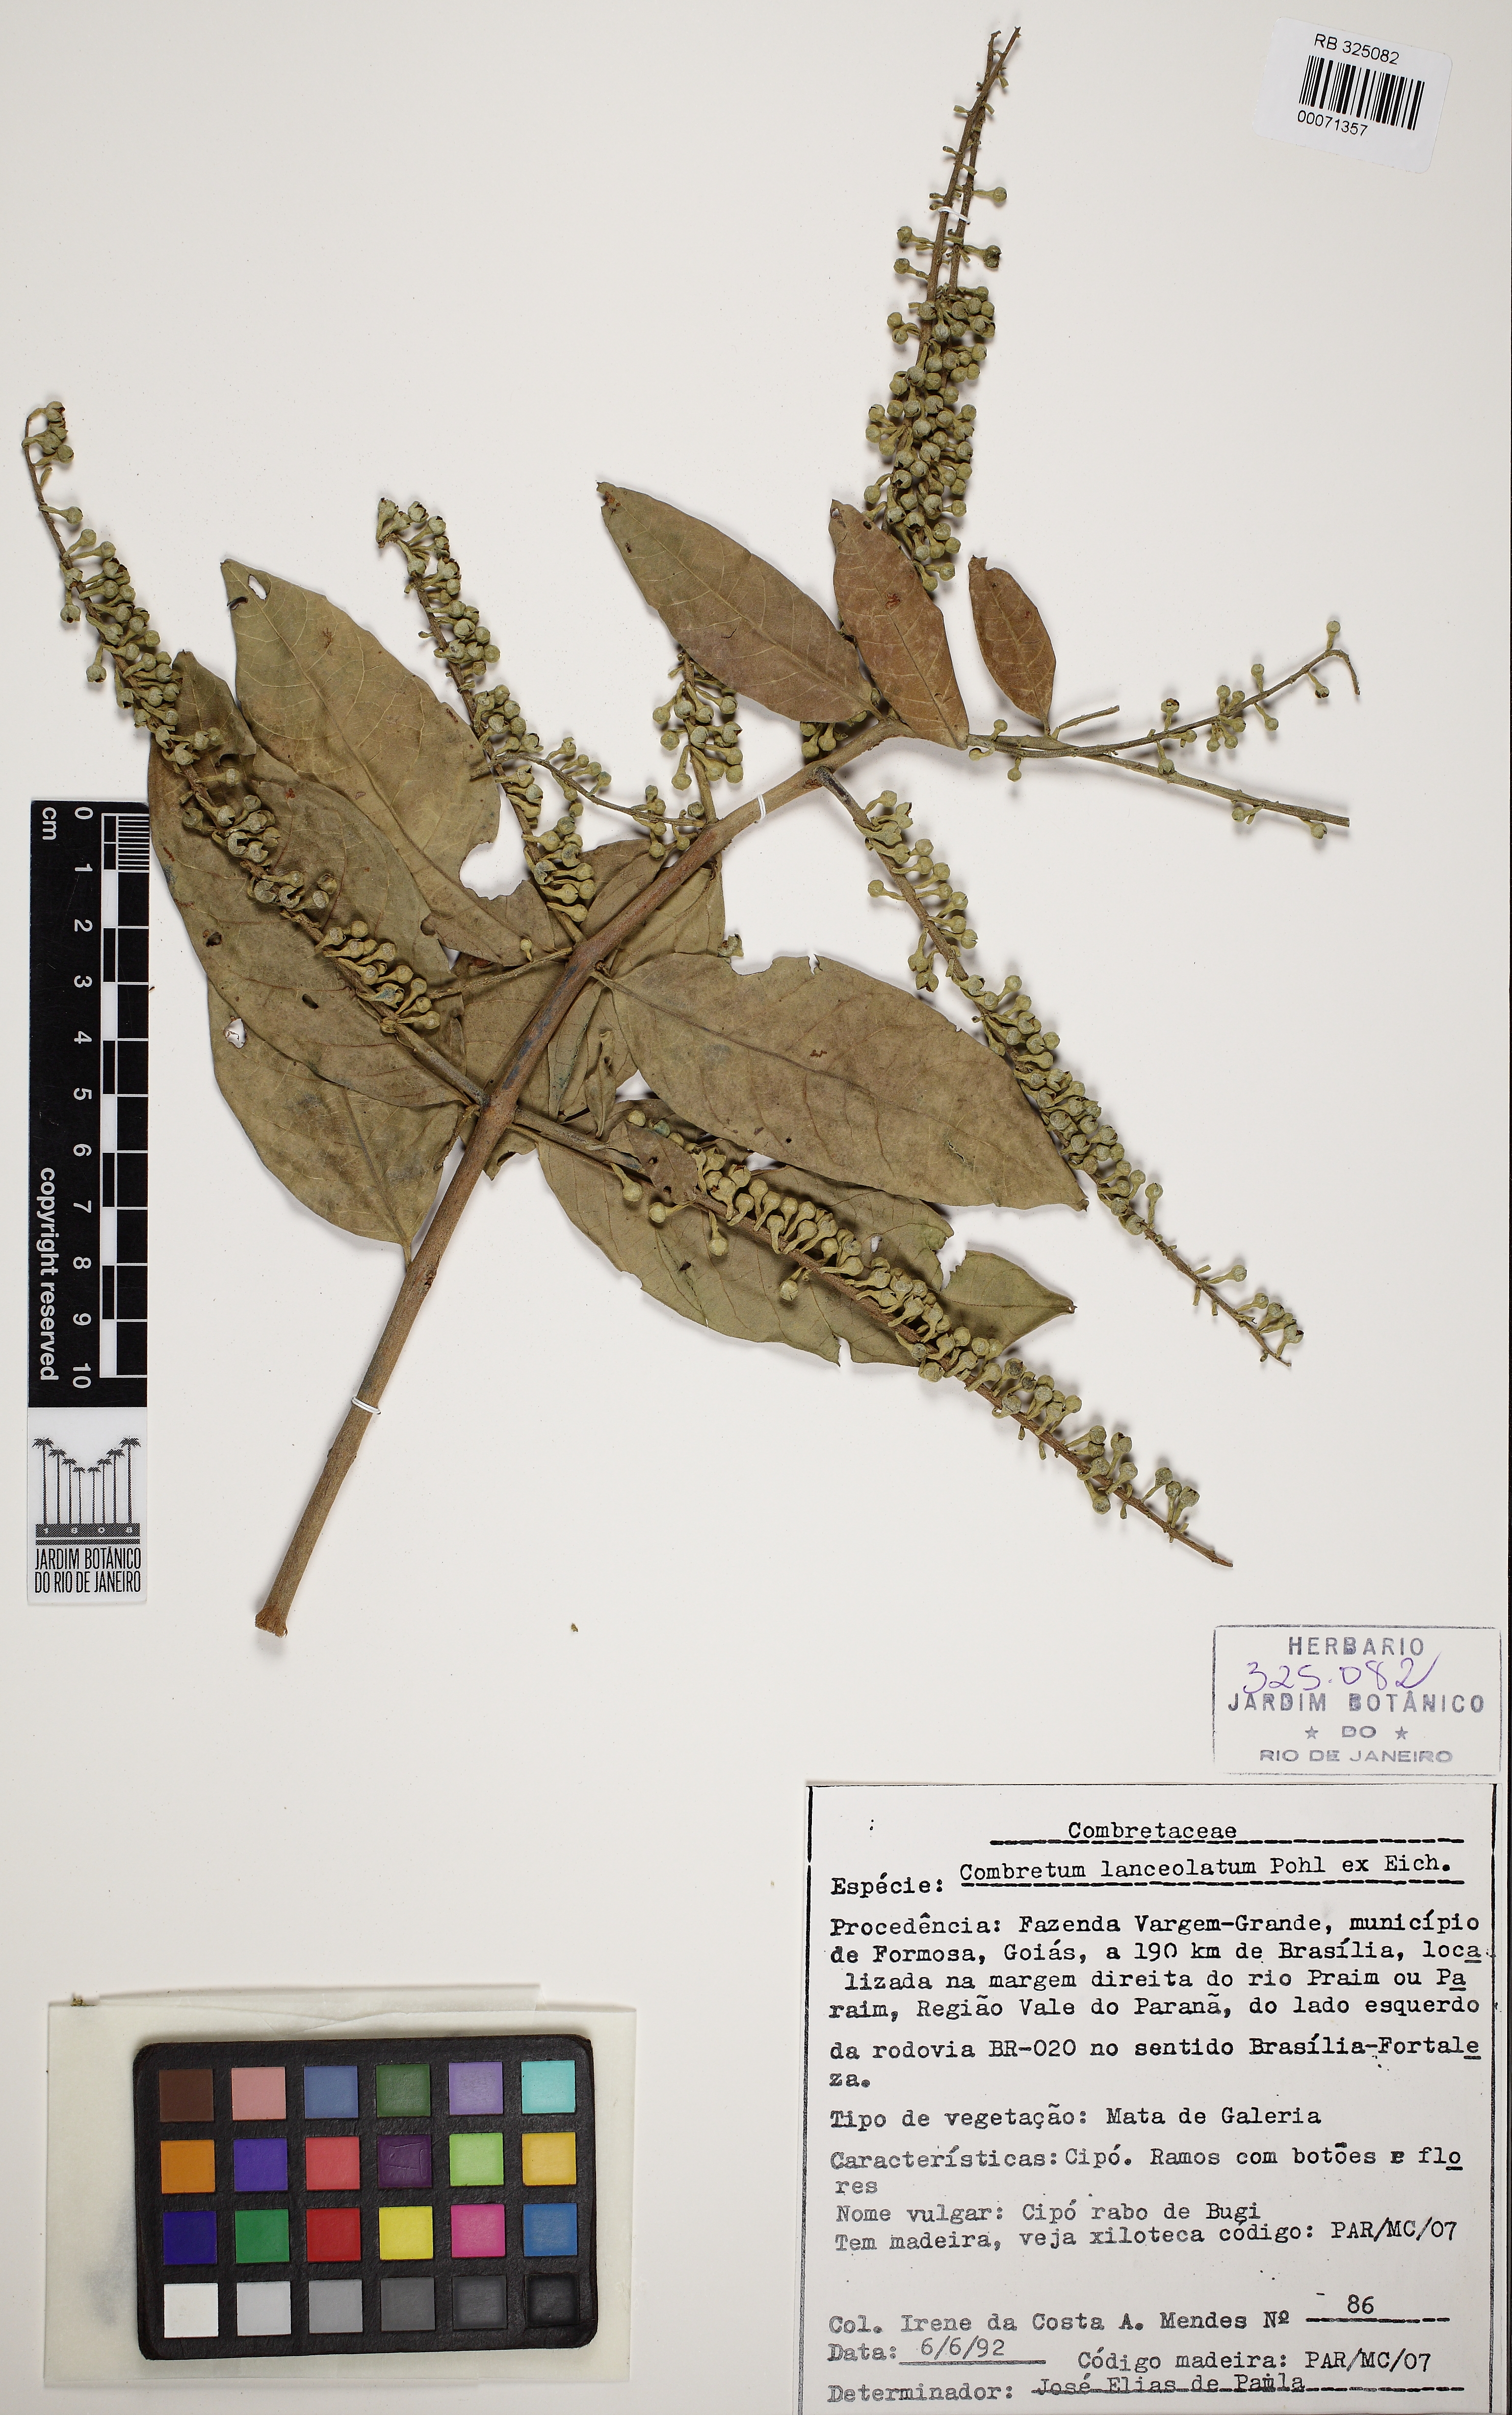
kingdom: Plantae
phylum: Tracheophyta
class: Magnoliopsida
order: Myrtales
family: Combretaceae
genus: Combretum
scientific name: Combretum lanceolatum
